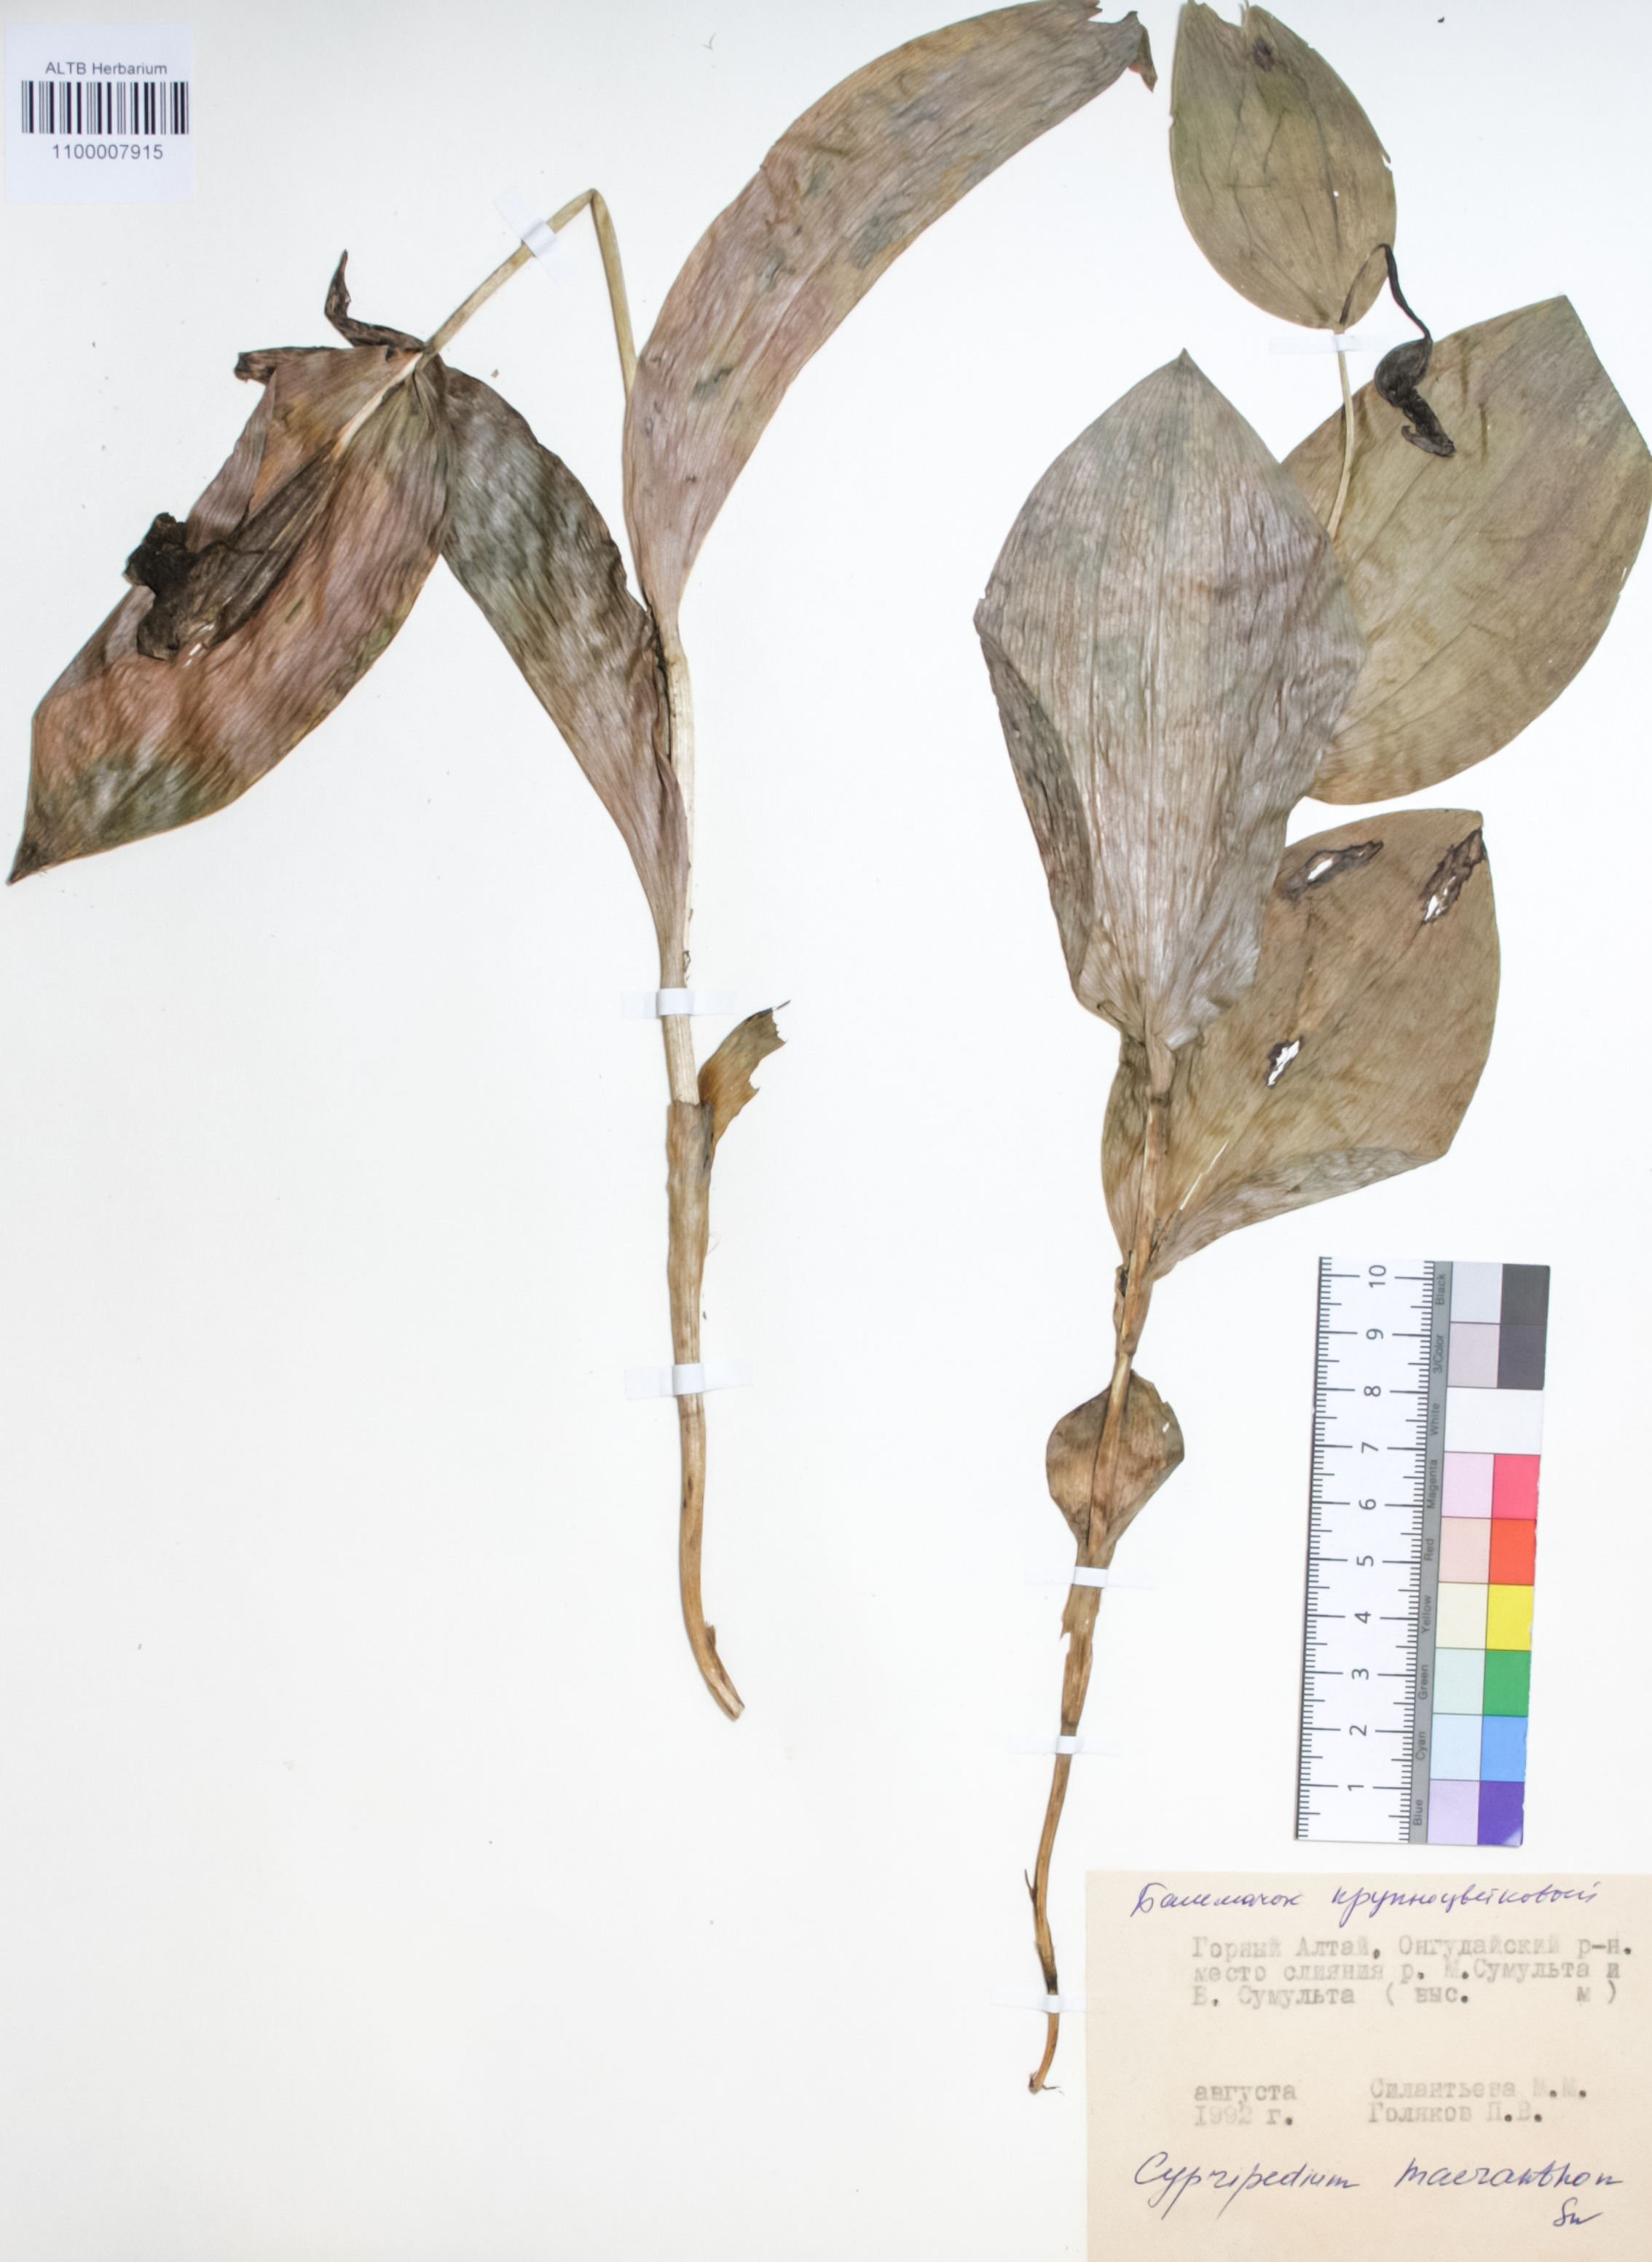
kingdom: Plantae
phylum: Tracheophyta
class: Liliopsida
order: Asparagales
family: Orchidaceae
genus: Cypripedium
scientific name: Cypripedium macranthon
